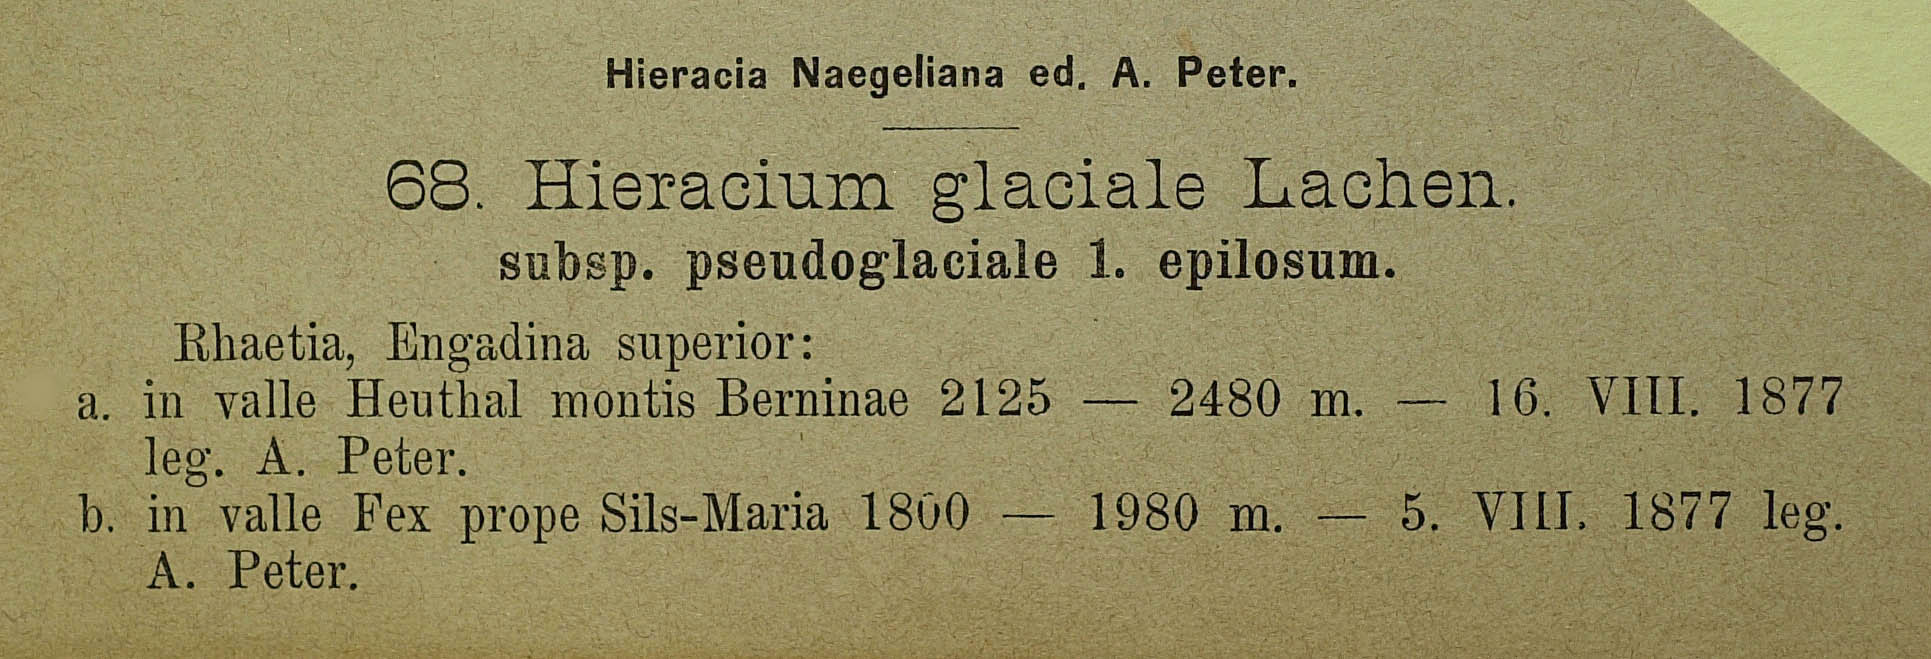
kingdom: Plantae
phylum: Tracheophyta
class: Magnoliopsida
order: Asterales
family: Asteraceae
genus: Pilosella
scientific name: Pilosella glacialis
